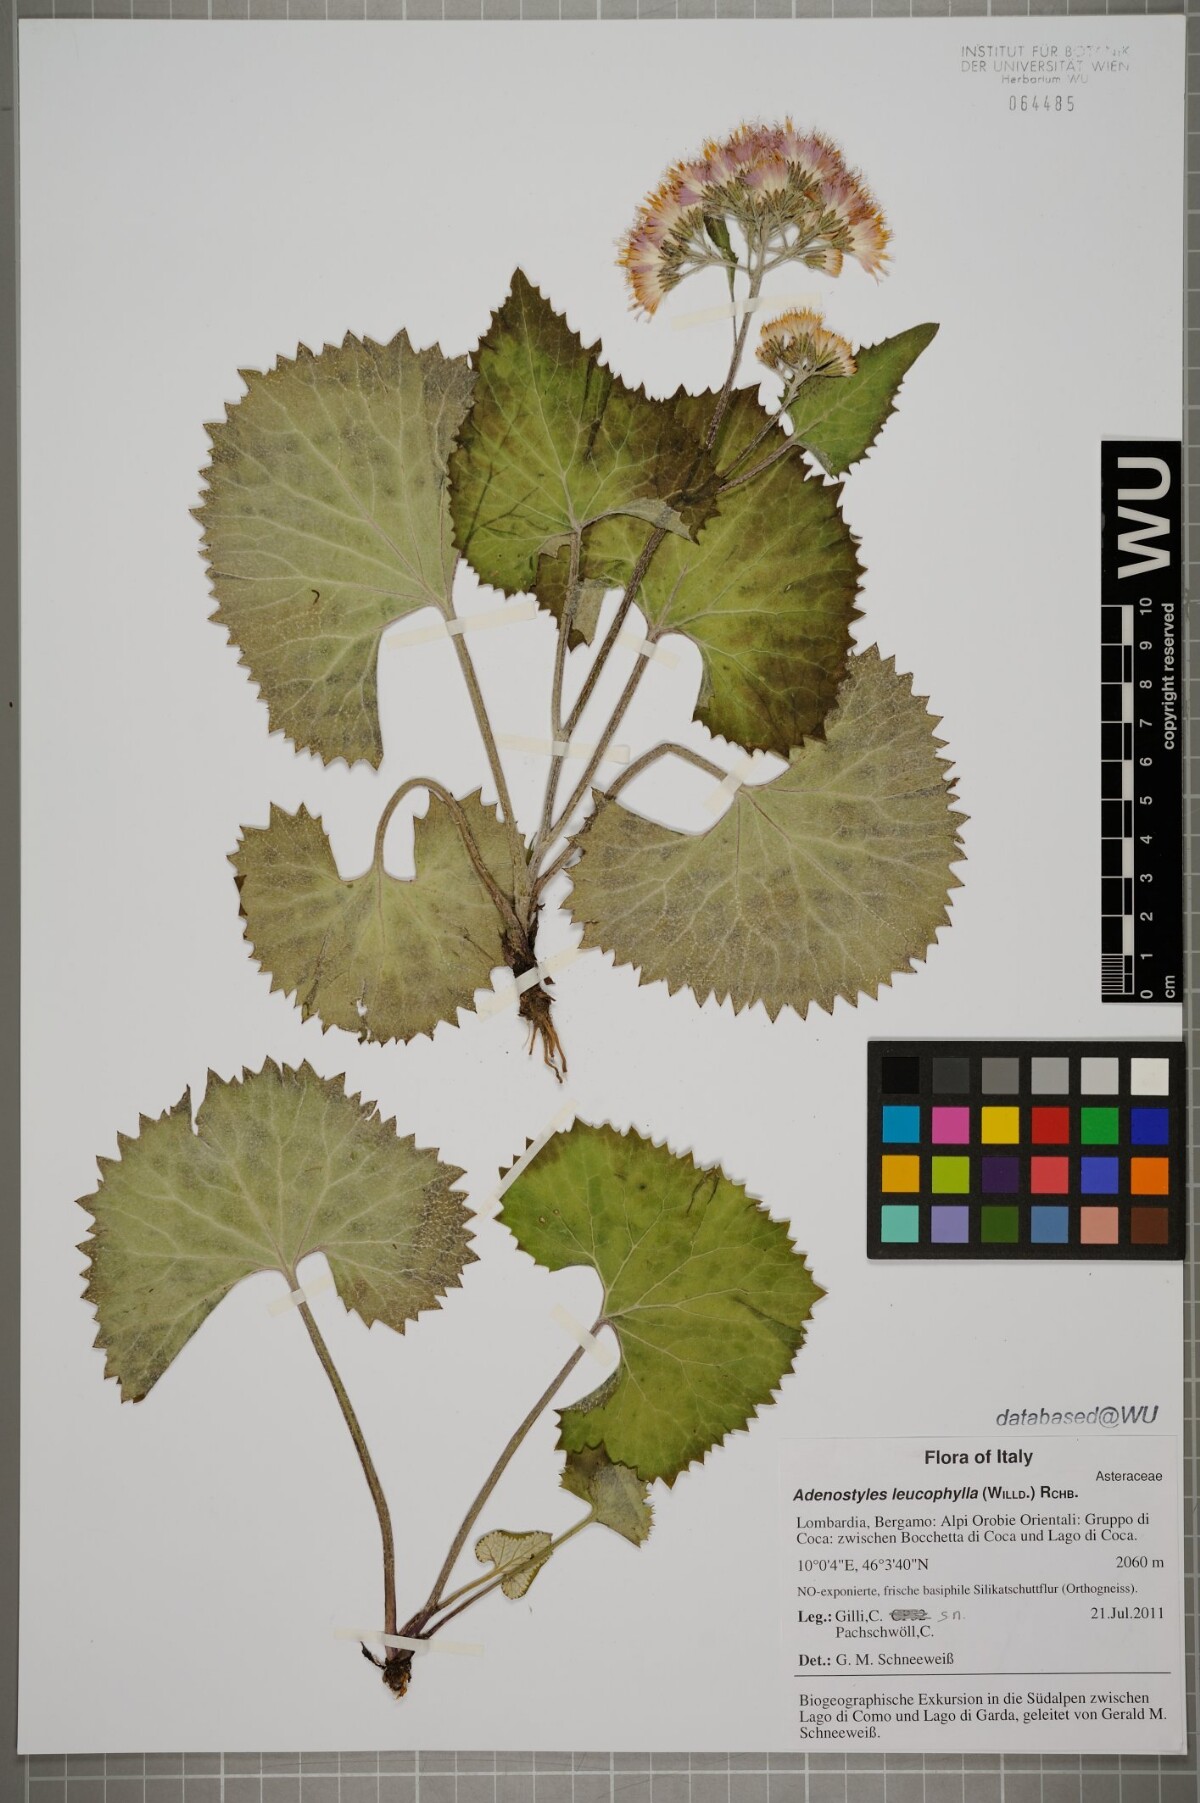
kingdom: Plantae
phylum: Tracheophyta
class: Magnoliopsida
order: Asterales
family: Asteraceae
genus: Adenostyles
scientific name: Adenostyles leucophylla
